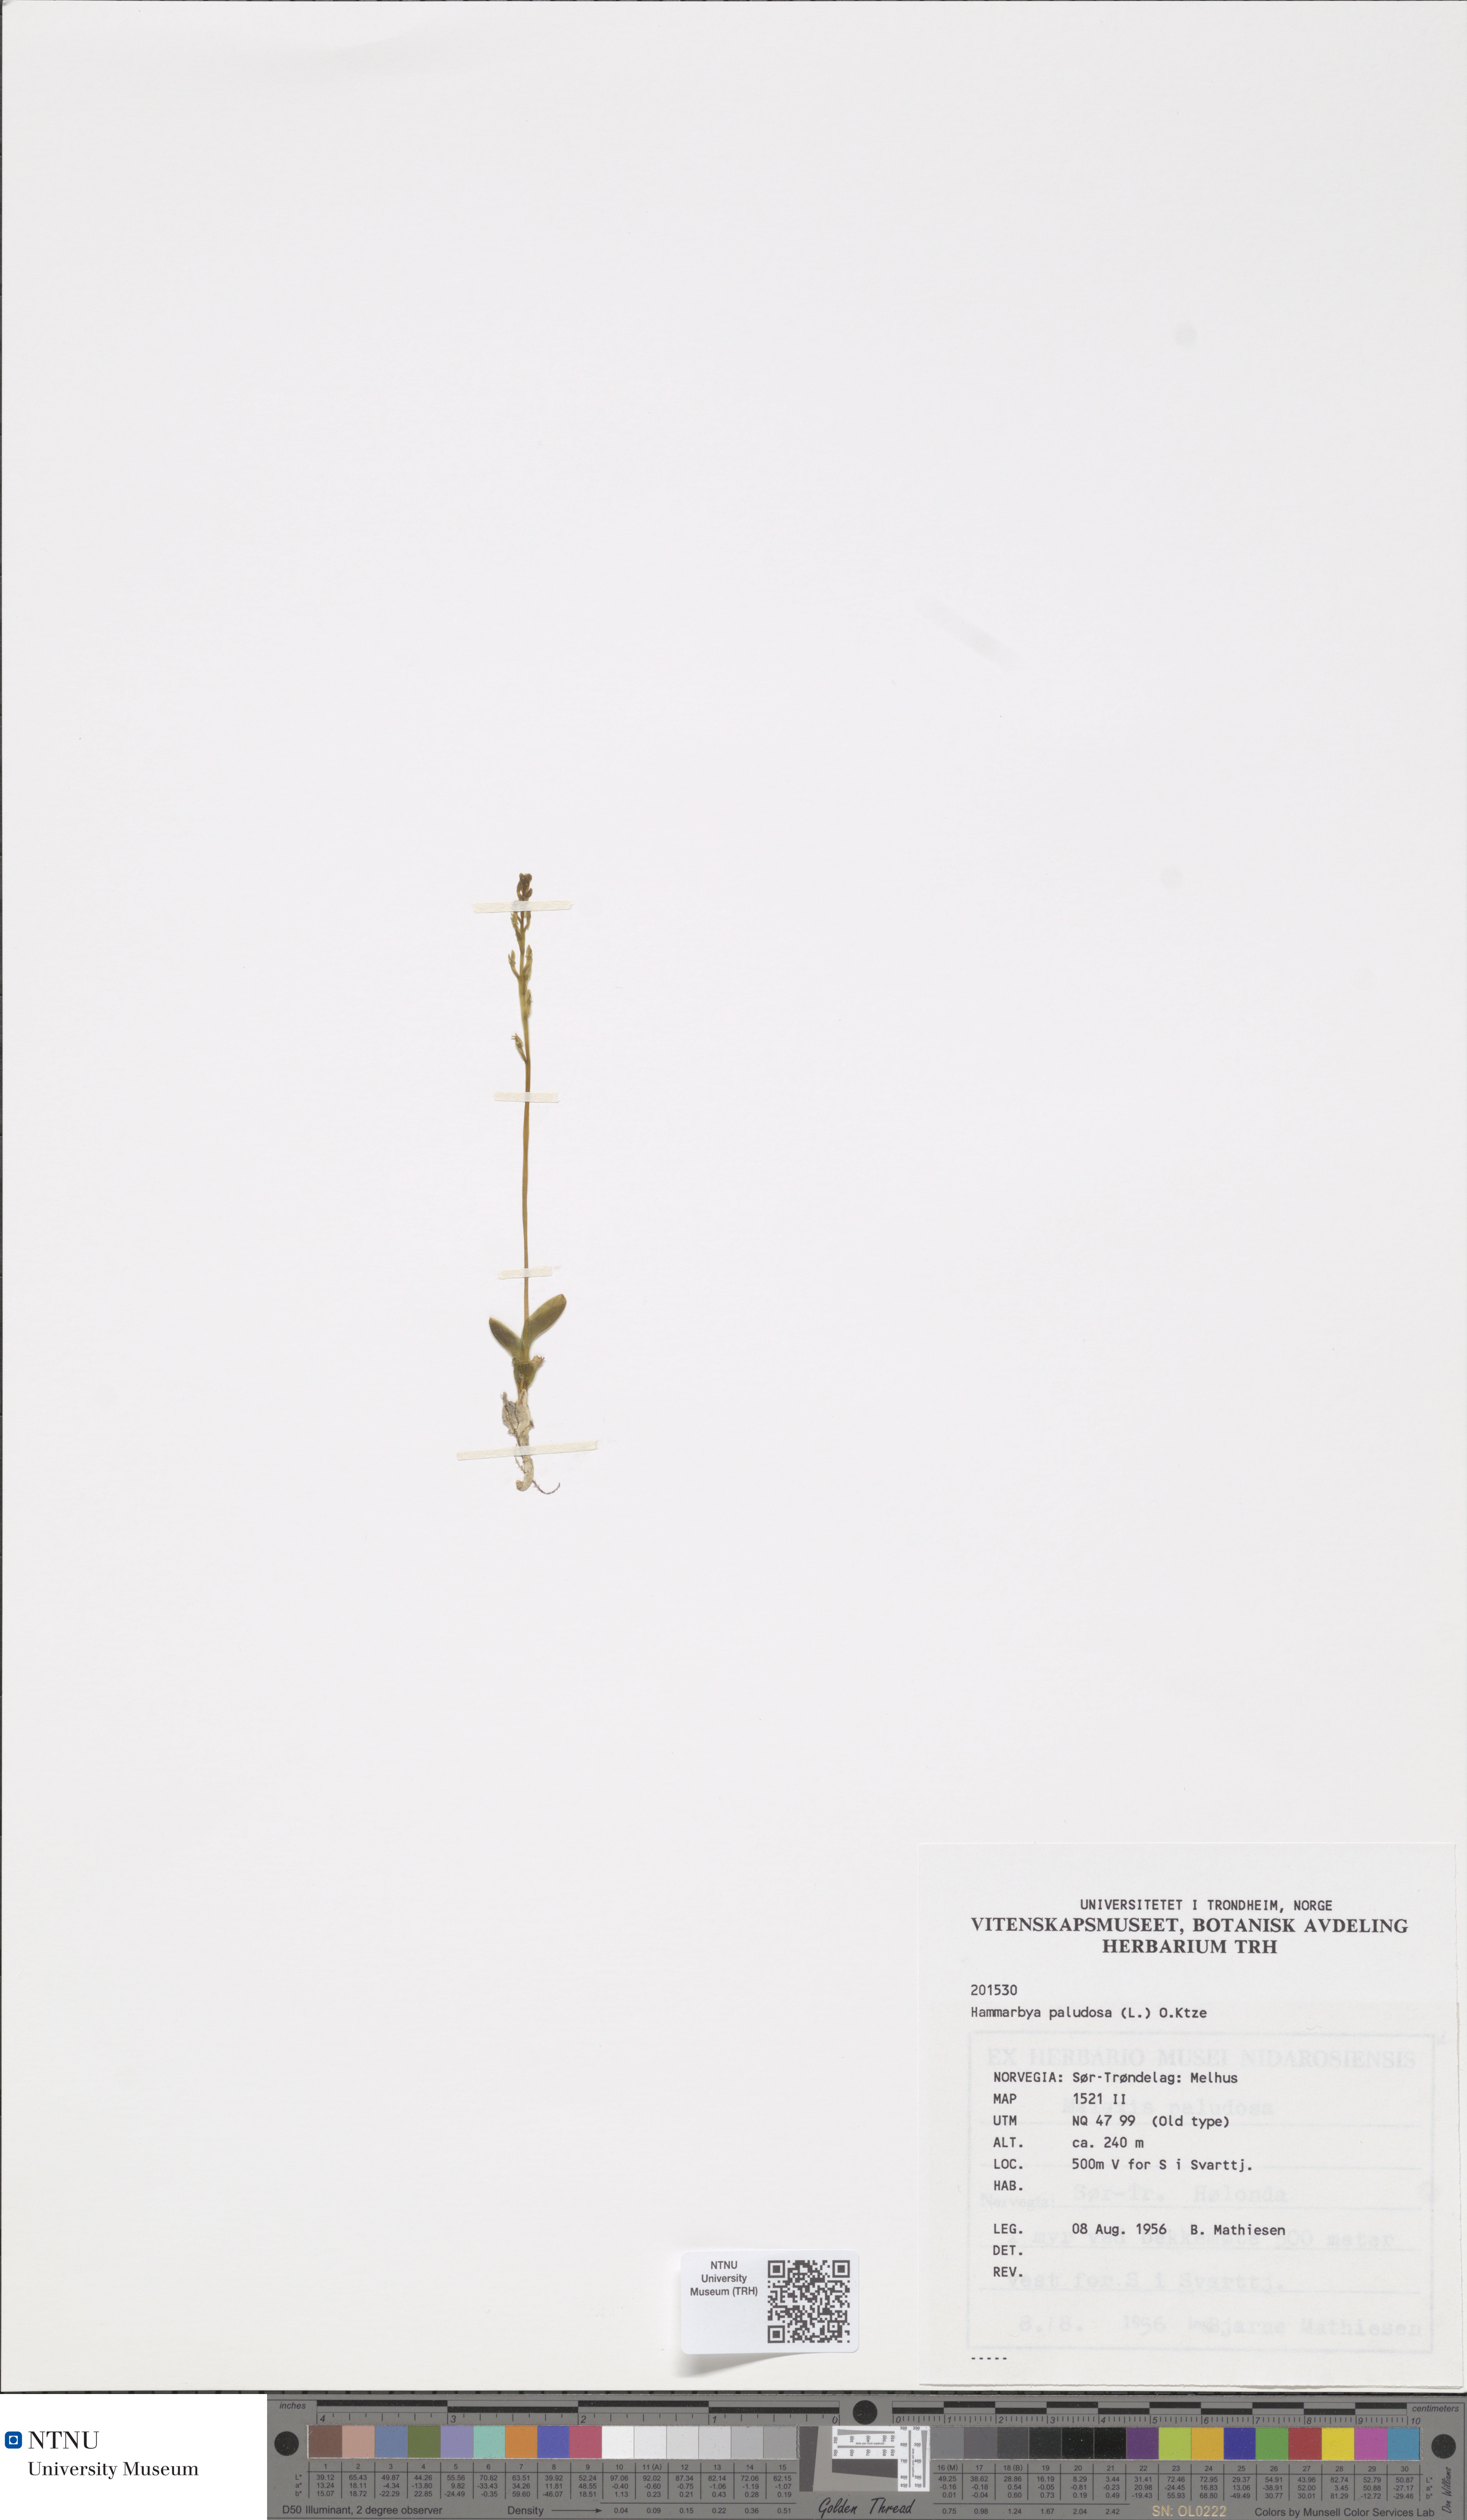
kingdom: Plantae
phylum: Tracheophyta
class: Liliopsida
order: Asparagales
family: Orchidaceae
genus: Hammarbya
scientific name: Hammarbya paludosa
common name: Bog orchid
